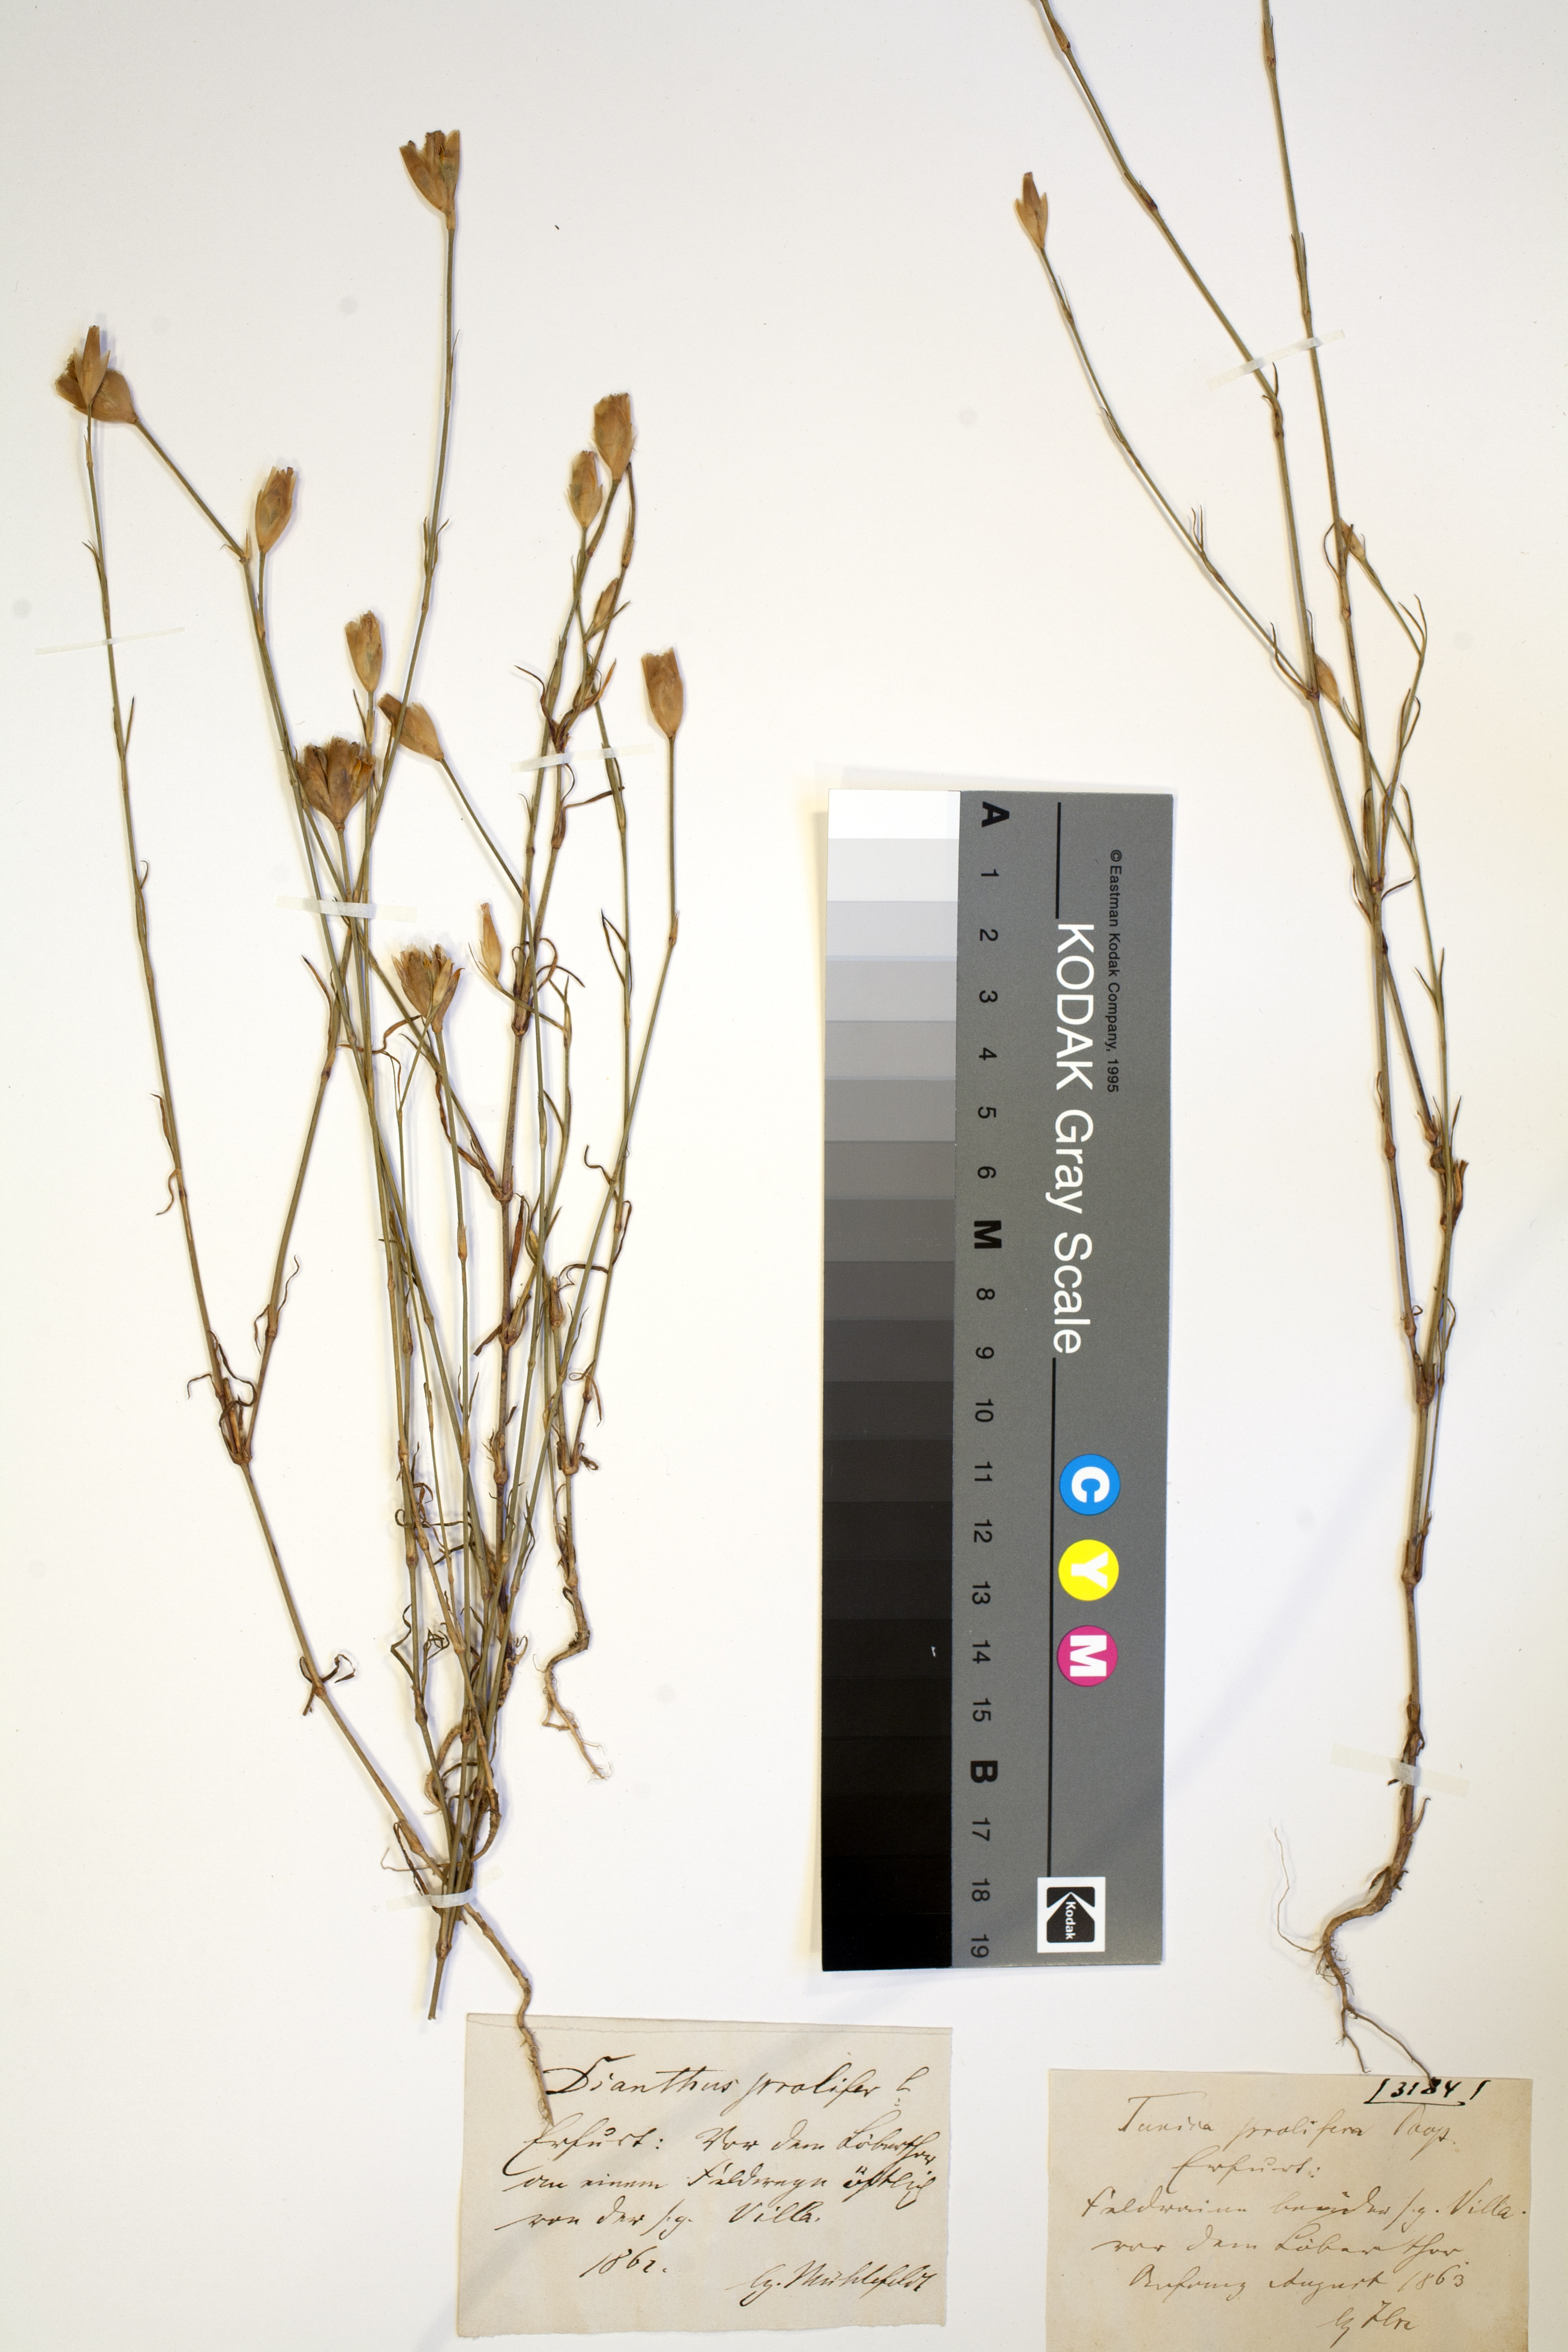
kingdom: Plantae
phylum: Tracheophyta
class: Magnoliopsida
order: Caryophyllales
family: Caryophyllaceae
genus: Petrorhagia
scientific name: Petrorhagia prolifera
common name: Proliferous pink
